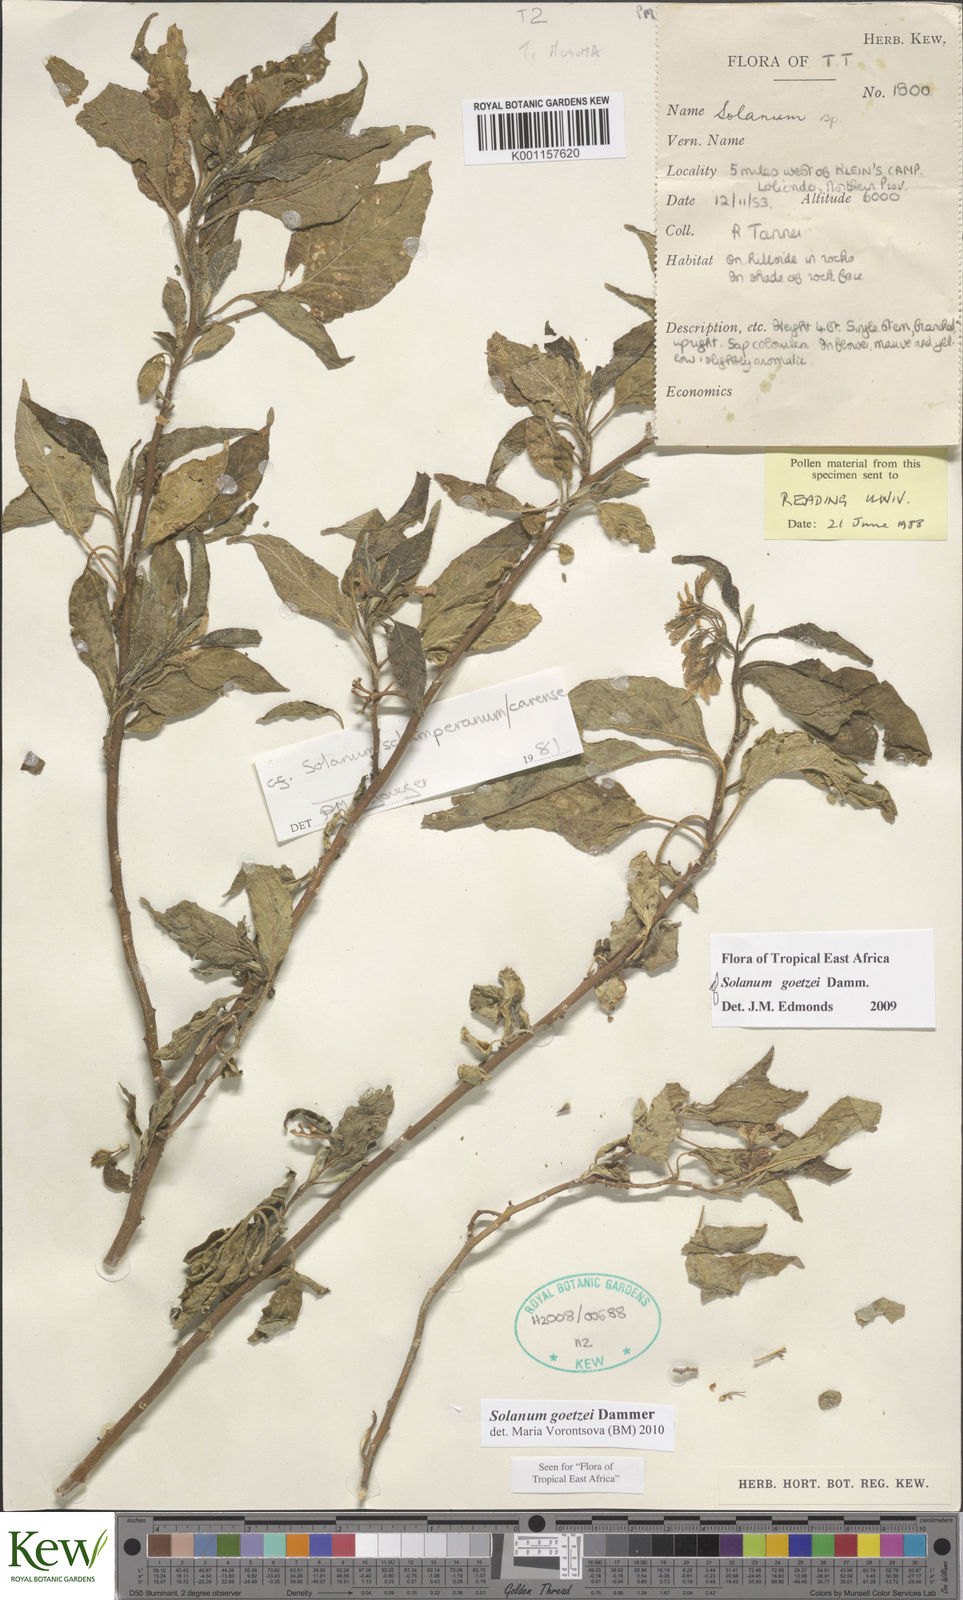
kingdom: Plantae
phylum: Tracheophyta
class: Magnoliopsida
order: Solanales
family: Solanaceae
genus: Solanum
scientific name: Solanum goetzei
